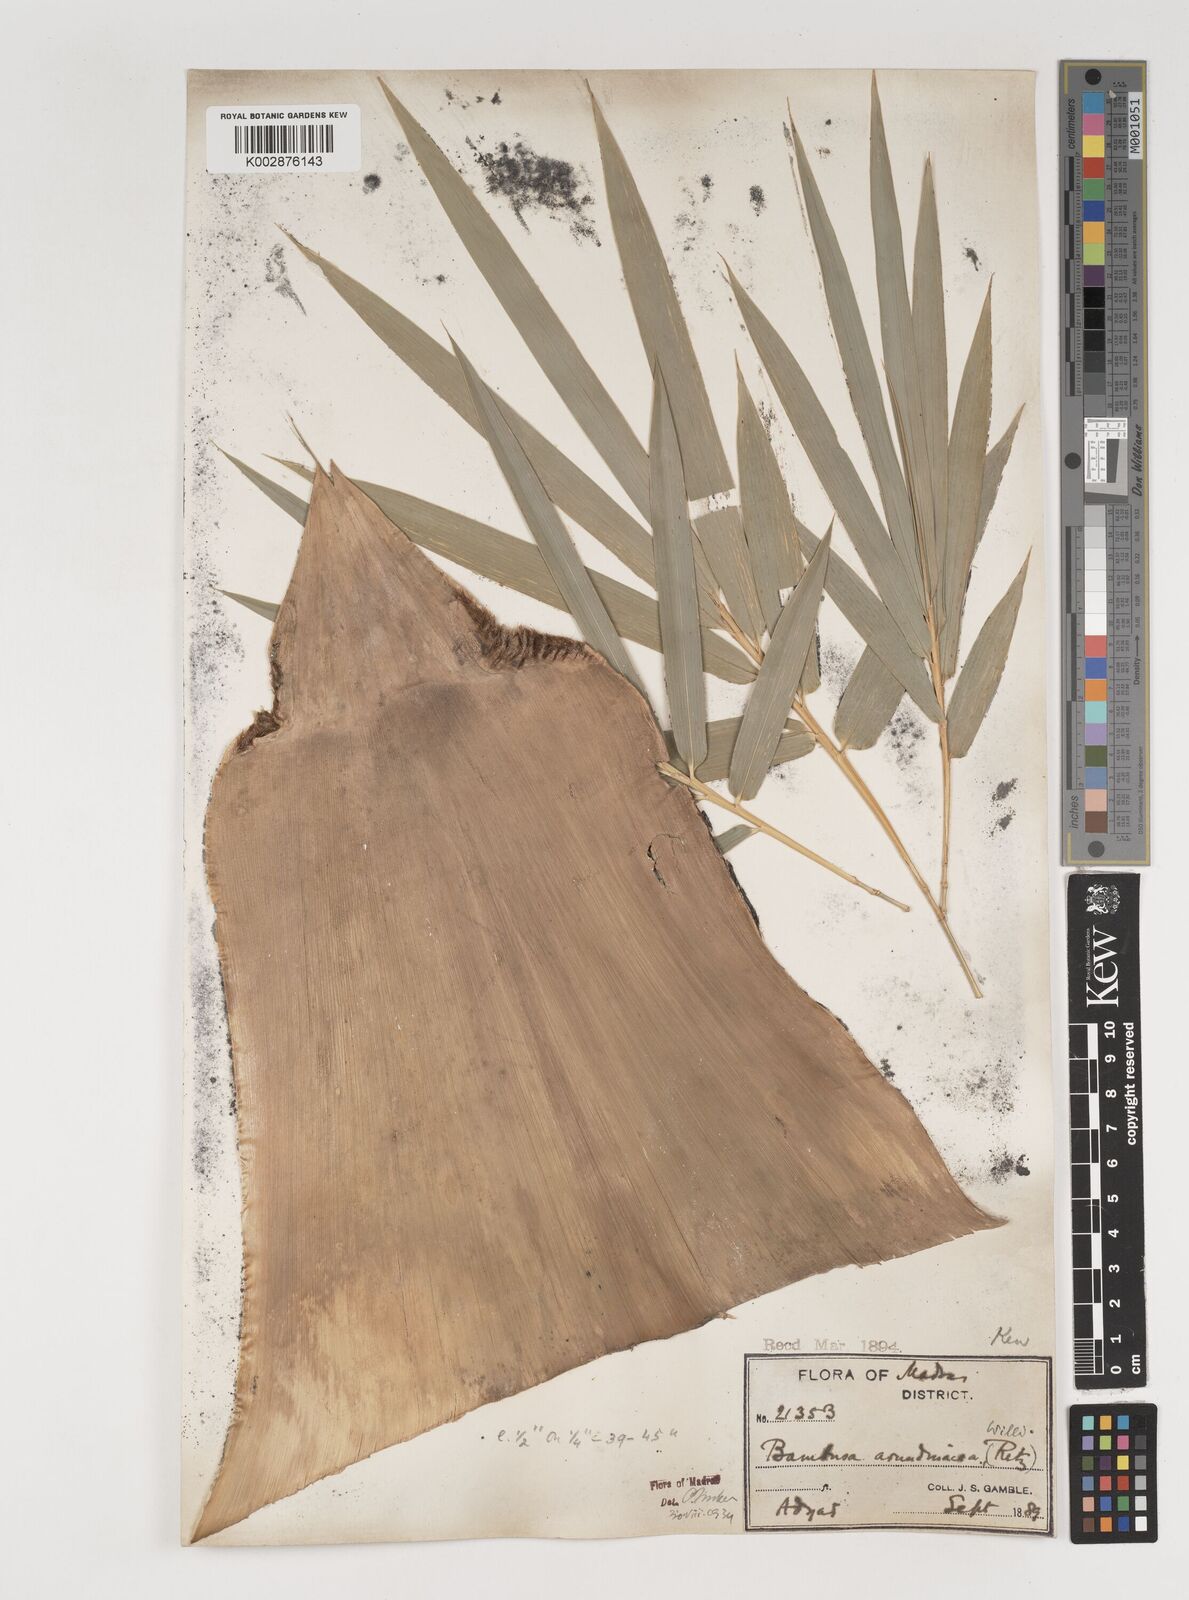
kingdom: Plantae
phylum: Tracheophyta
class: Liliopsida
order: Poales
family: Poaceae
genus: Bambusa
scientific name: Bambusa bambos
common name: Indian thorny bamboo
